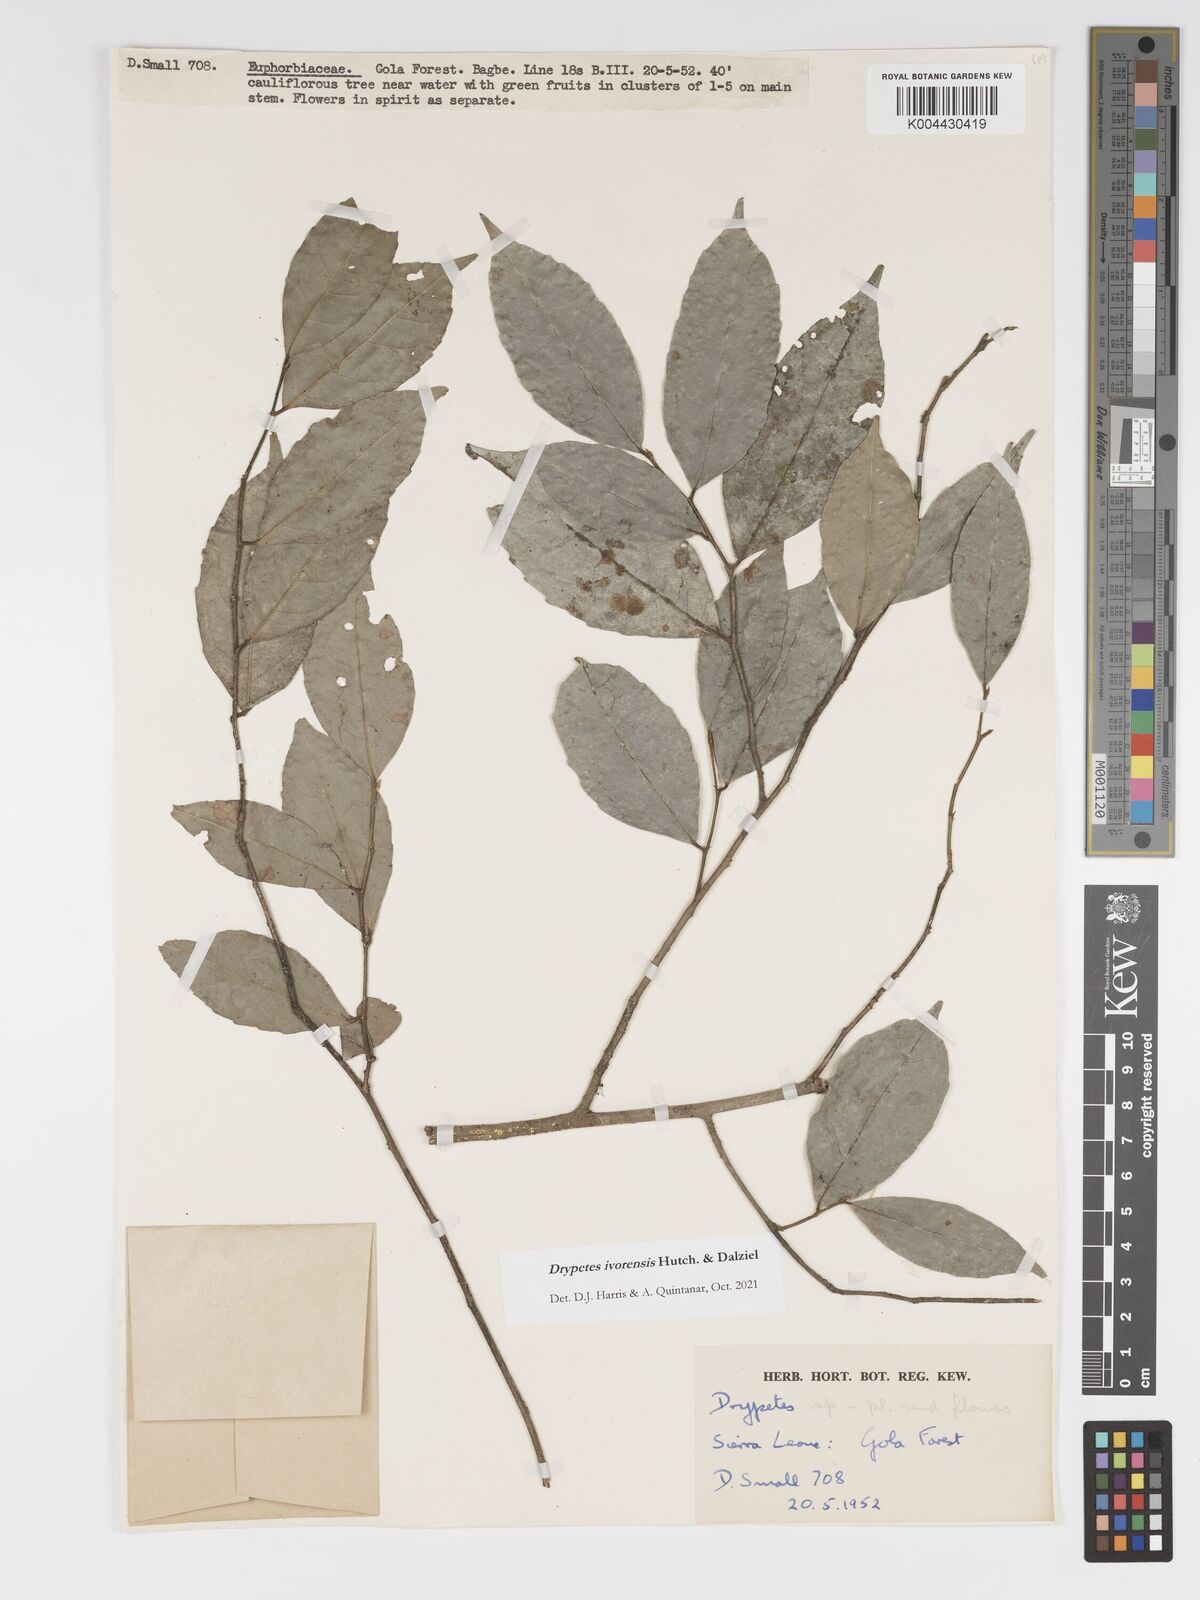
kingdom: Plantae
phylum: Tracheophyta
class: Magnoliopsida
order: Malpighiales
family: Putranjivaceae
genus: Drypetes
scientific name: Drypetes ivorensis
